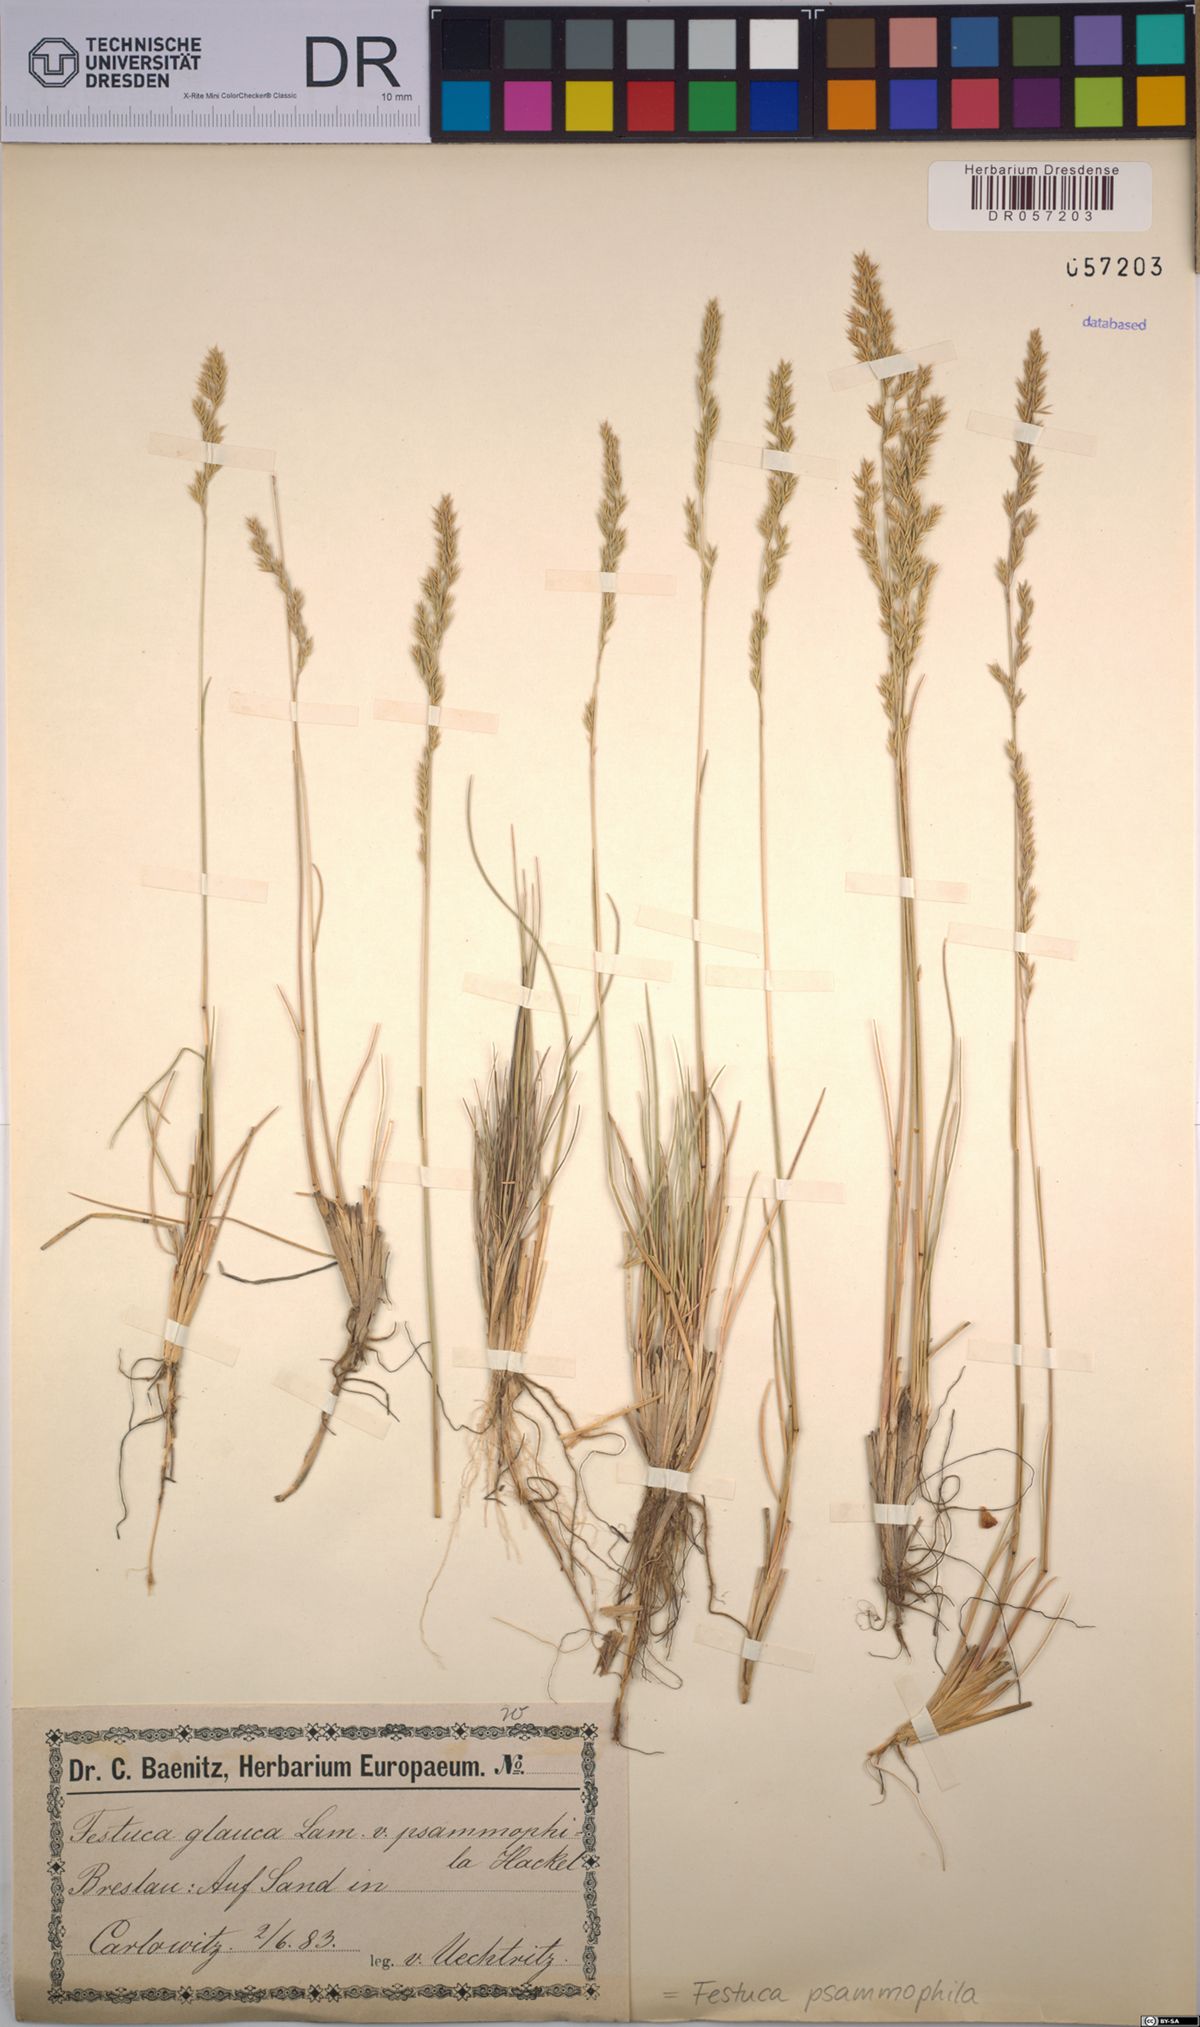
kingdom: Plantae
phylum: Tracheophyta
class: Liliopsida
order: Poales
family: Poaceae
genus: Festuca
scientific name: Festuca psammophila
